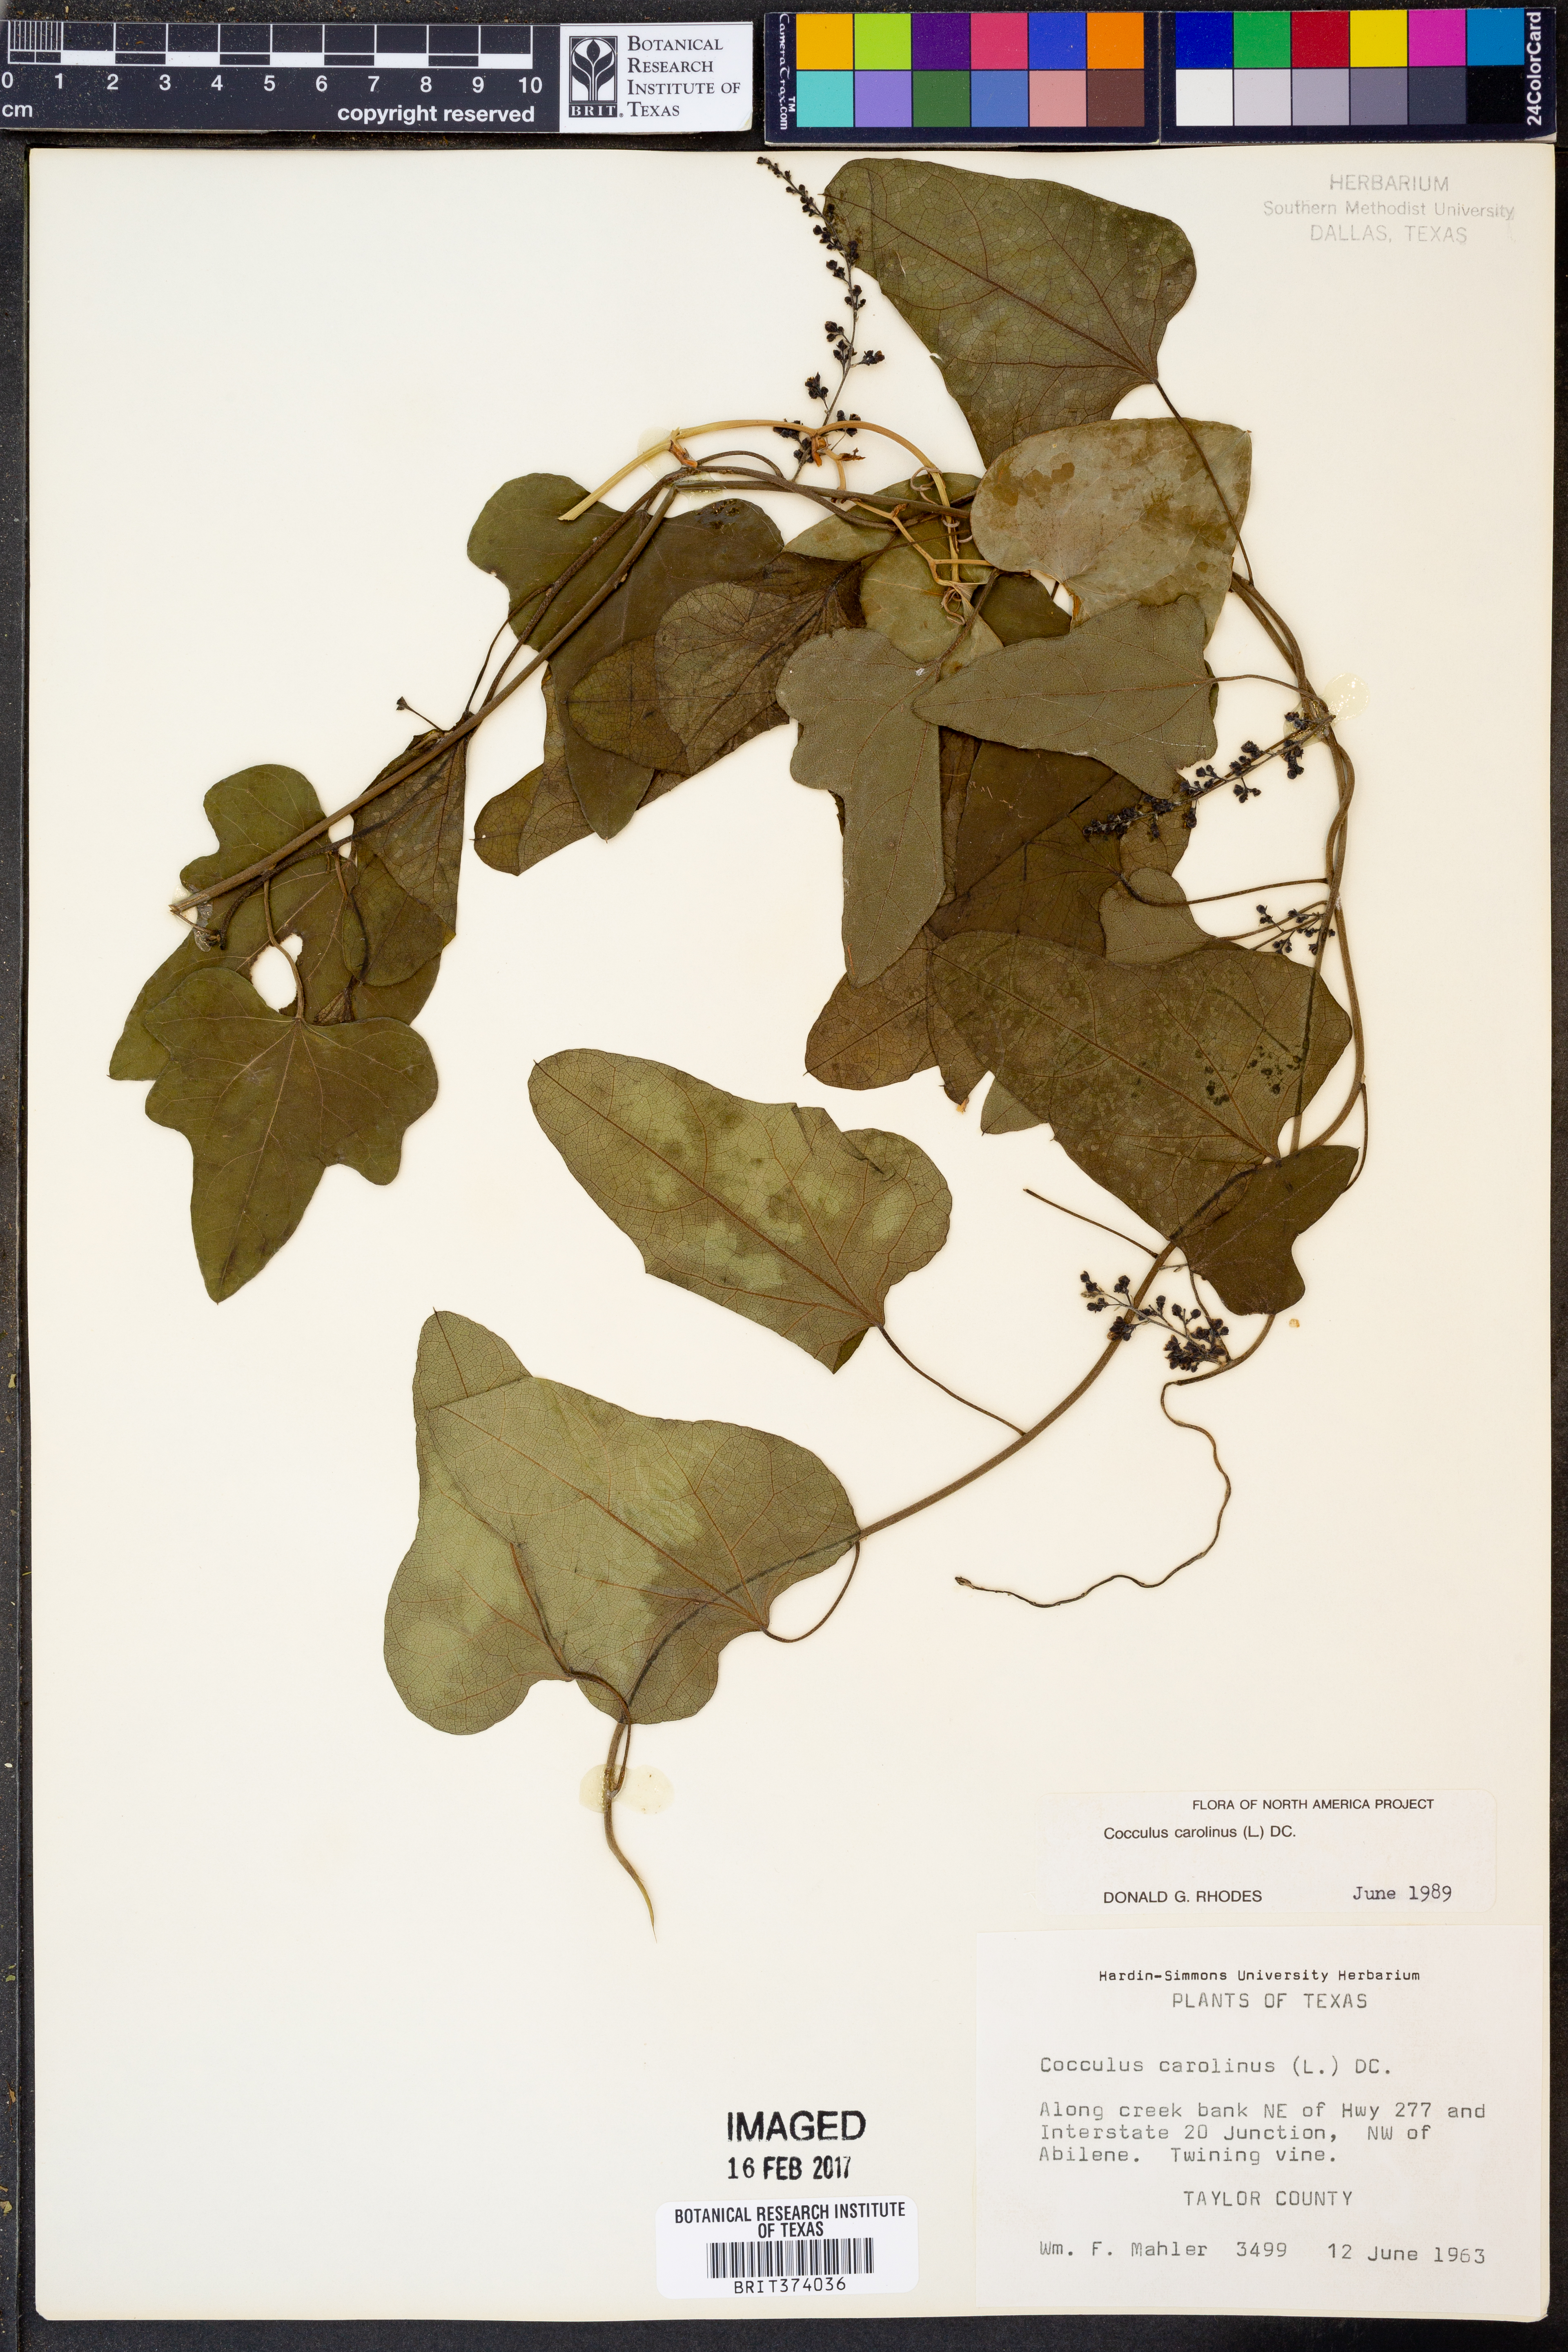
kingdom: Plantae
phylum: Tracheophyta
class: Magnoliopsida
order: Ranunculales
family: Menispermaceae
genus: Cocculus
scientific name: Cocculus carolinus
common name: Carolina moonseed
